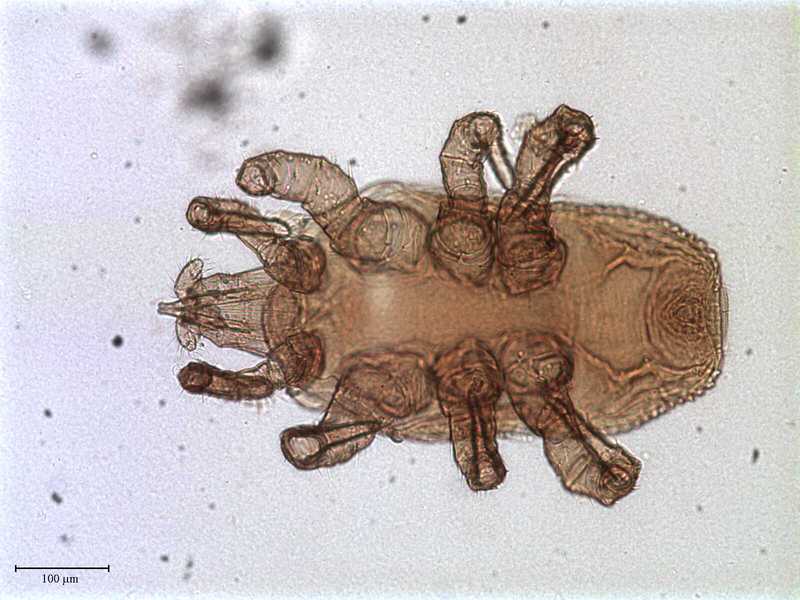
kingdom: Animalia
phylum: Arthropoda
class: Arachnida
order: Mesostigmata
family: Halolaelapidae
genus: Saprolaelaps
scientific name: Saprolaelaps
